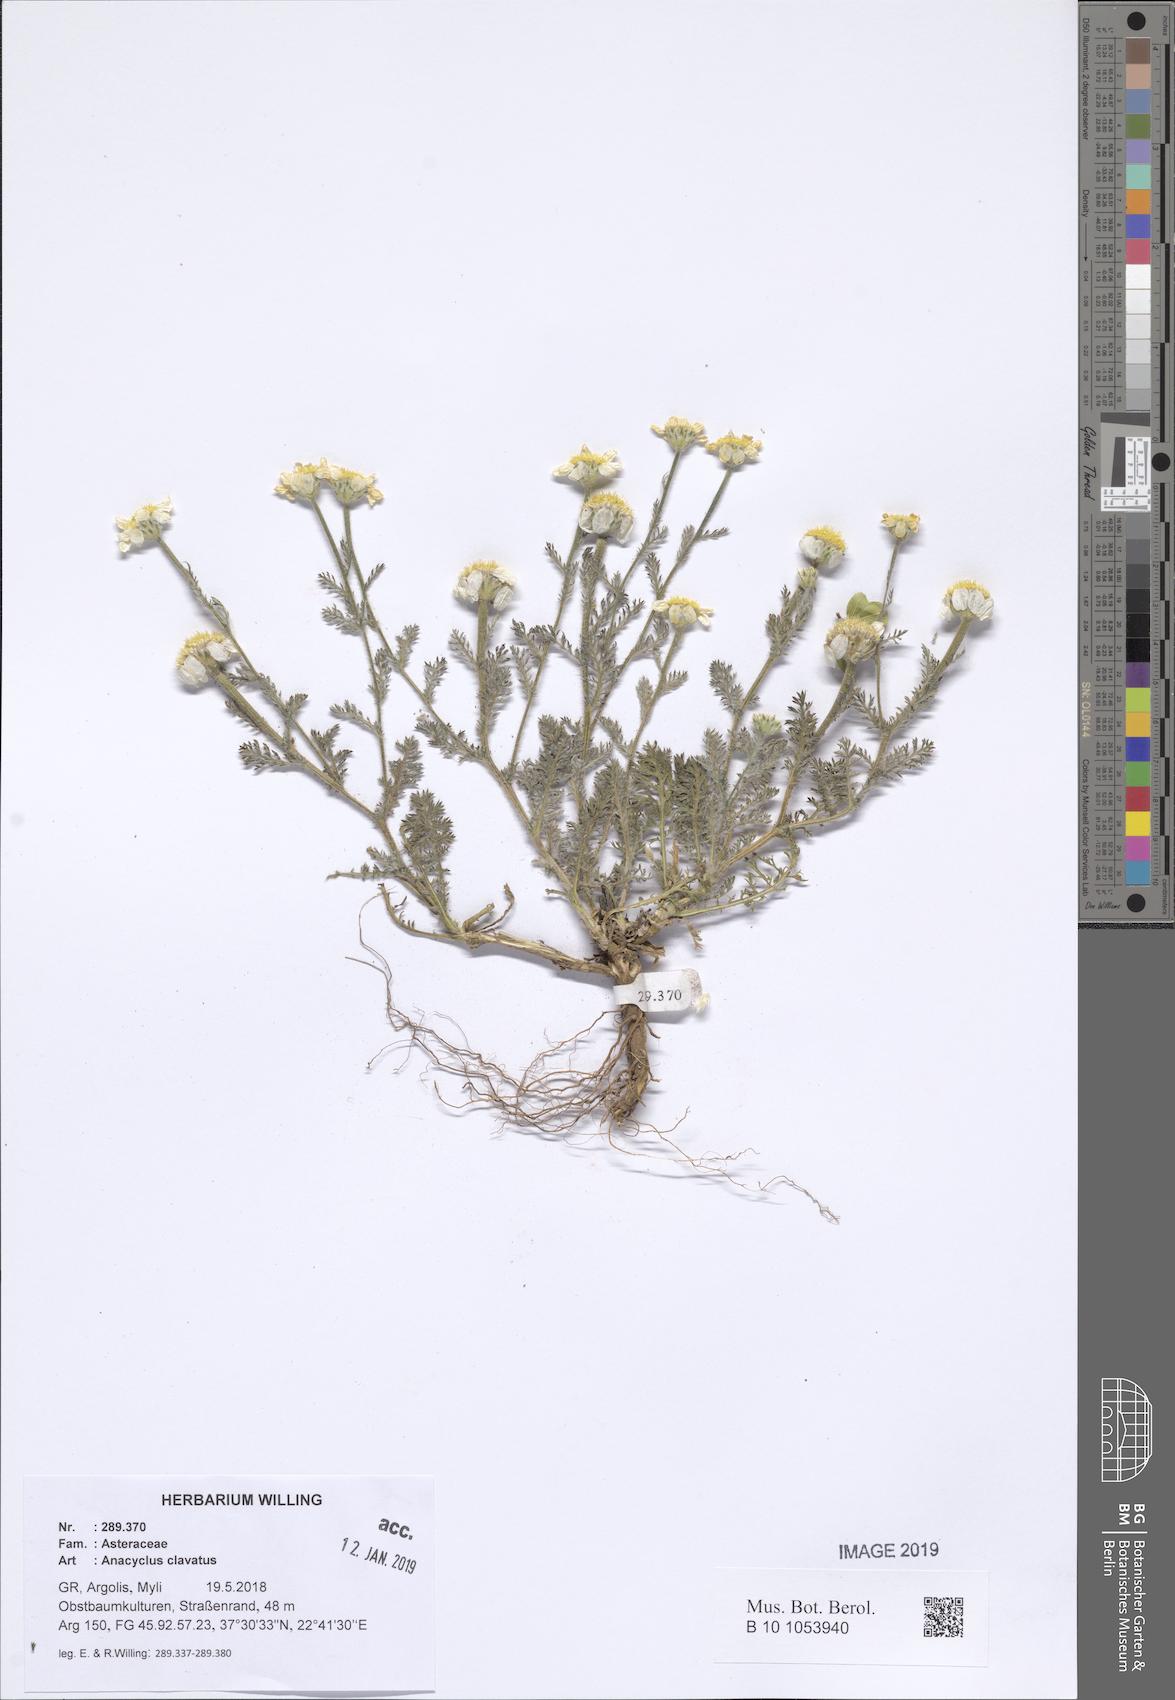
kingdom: Plantae
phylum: Tracheophyta
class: Magnoliopsida
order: Asterales
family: Asteraceae
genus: Anacyclus
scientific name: Anacyclus clavatus
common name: Whitebuttons
